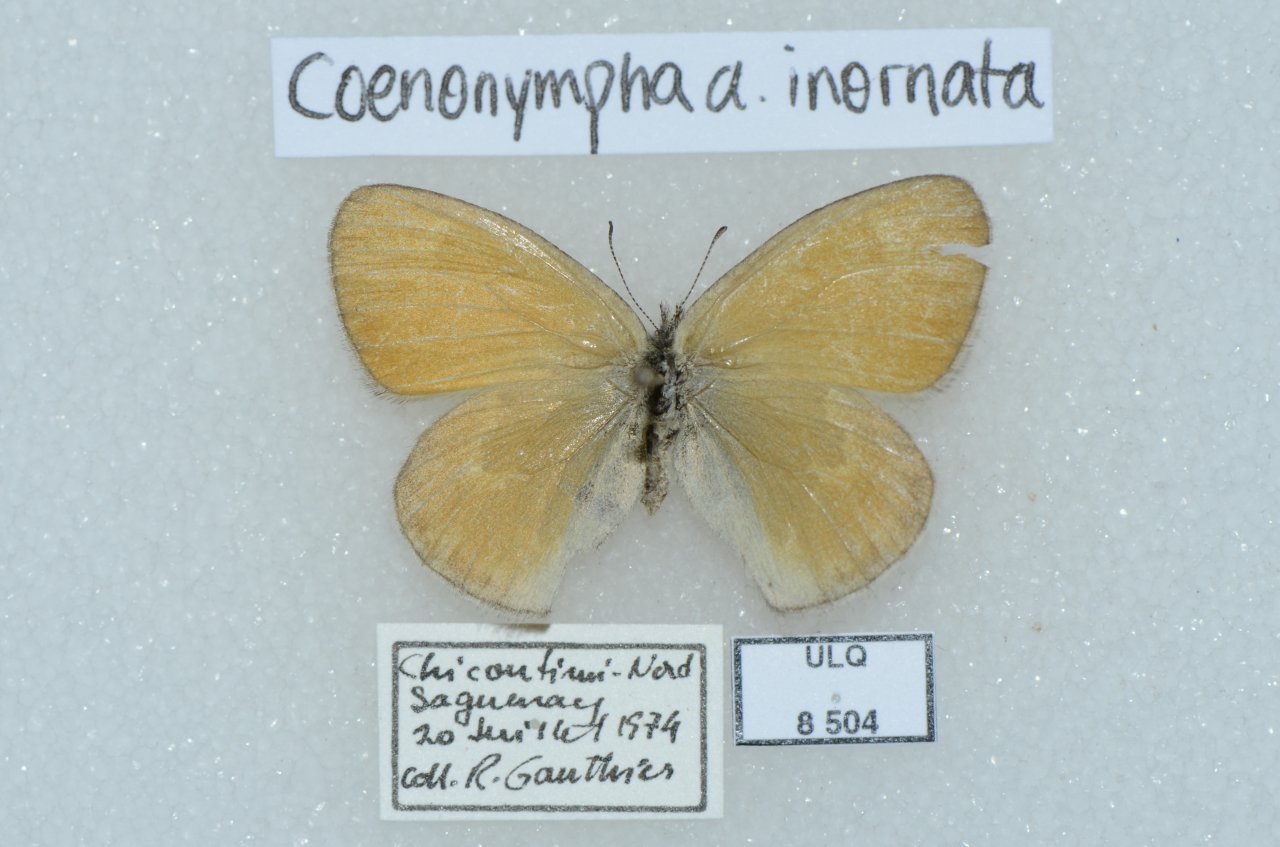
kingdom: Animalia
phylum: Arthropoda
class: Insecta
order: Lepidoptera
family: Nymphalidae
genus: Coenonympha
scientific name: Coenonympha tullia
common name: Large Heath
